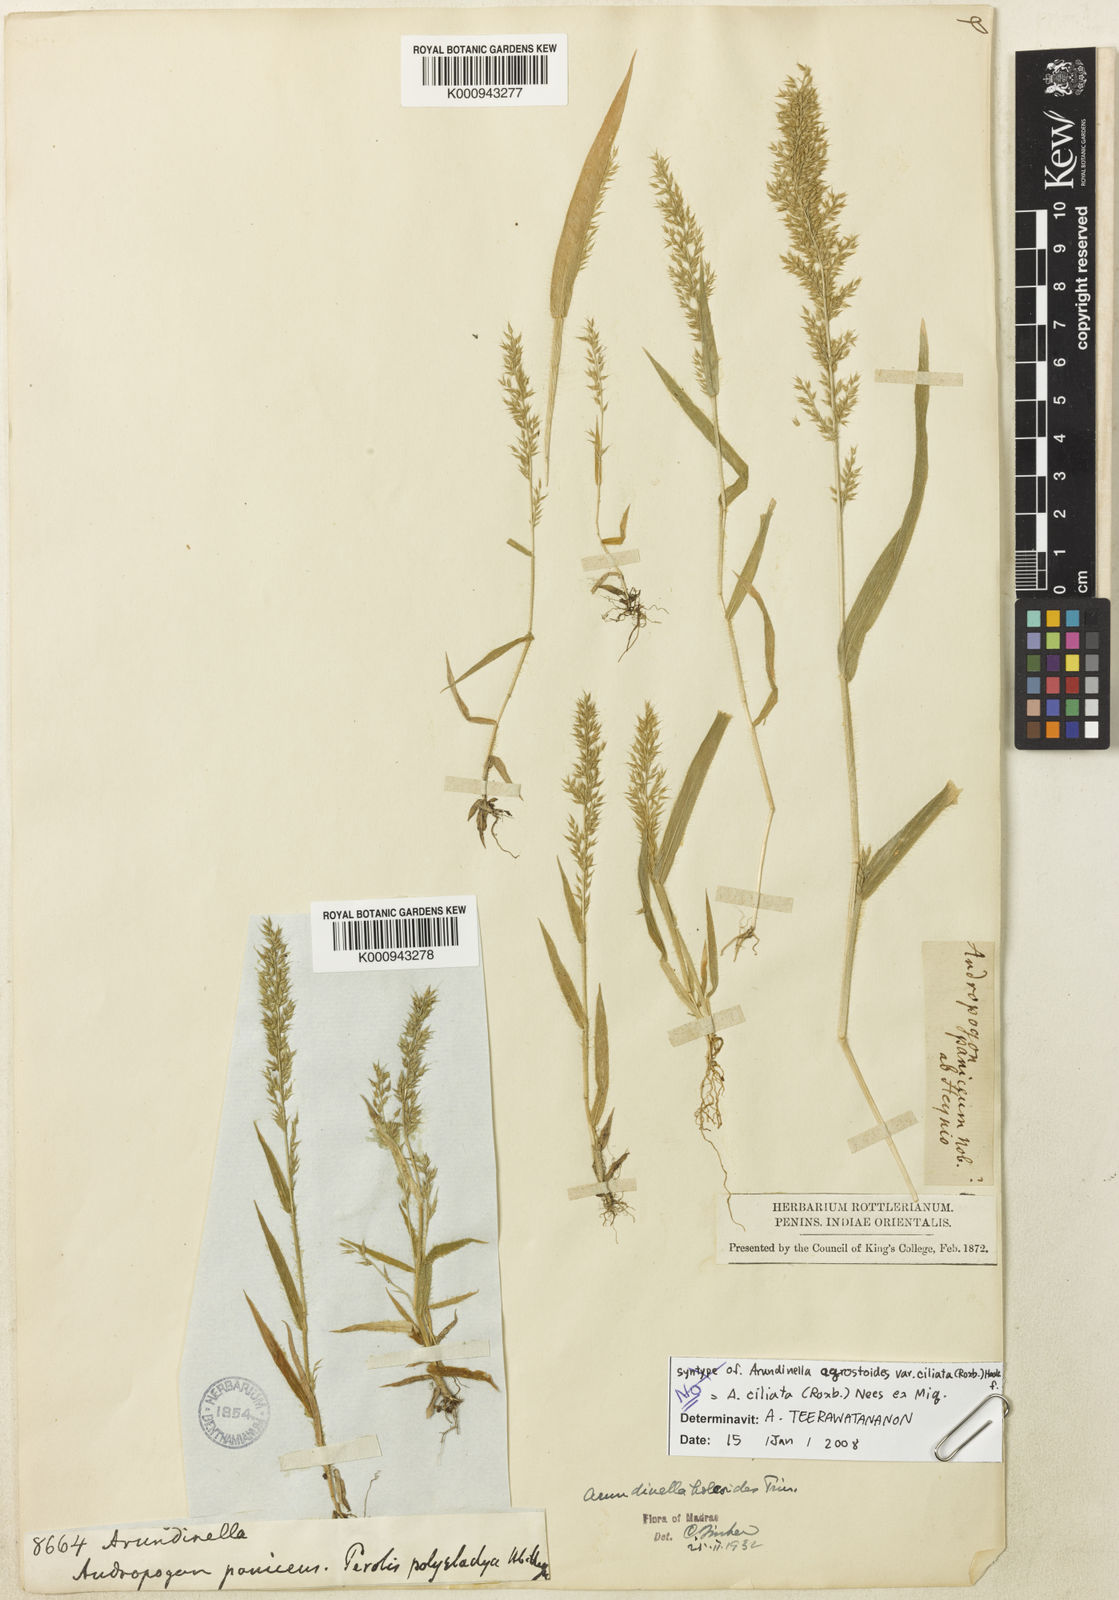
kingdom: Plantae
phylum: Tracheophyta
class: Liliopsida
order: Poales
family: Poaceae
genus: Arundinella
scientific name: Arundinella ciliata
